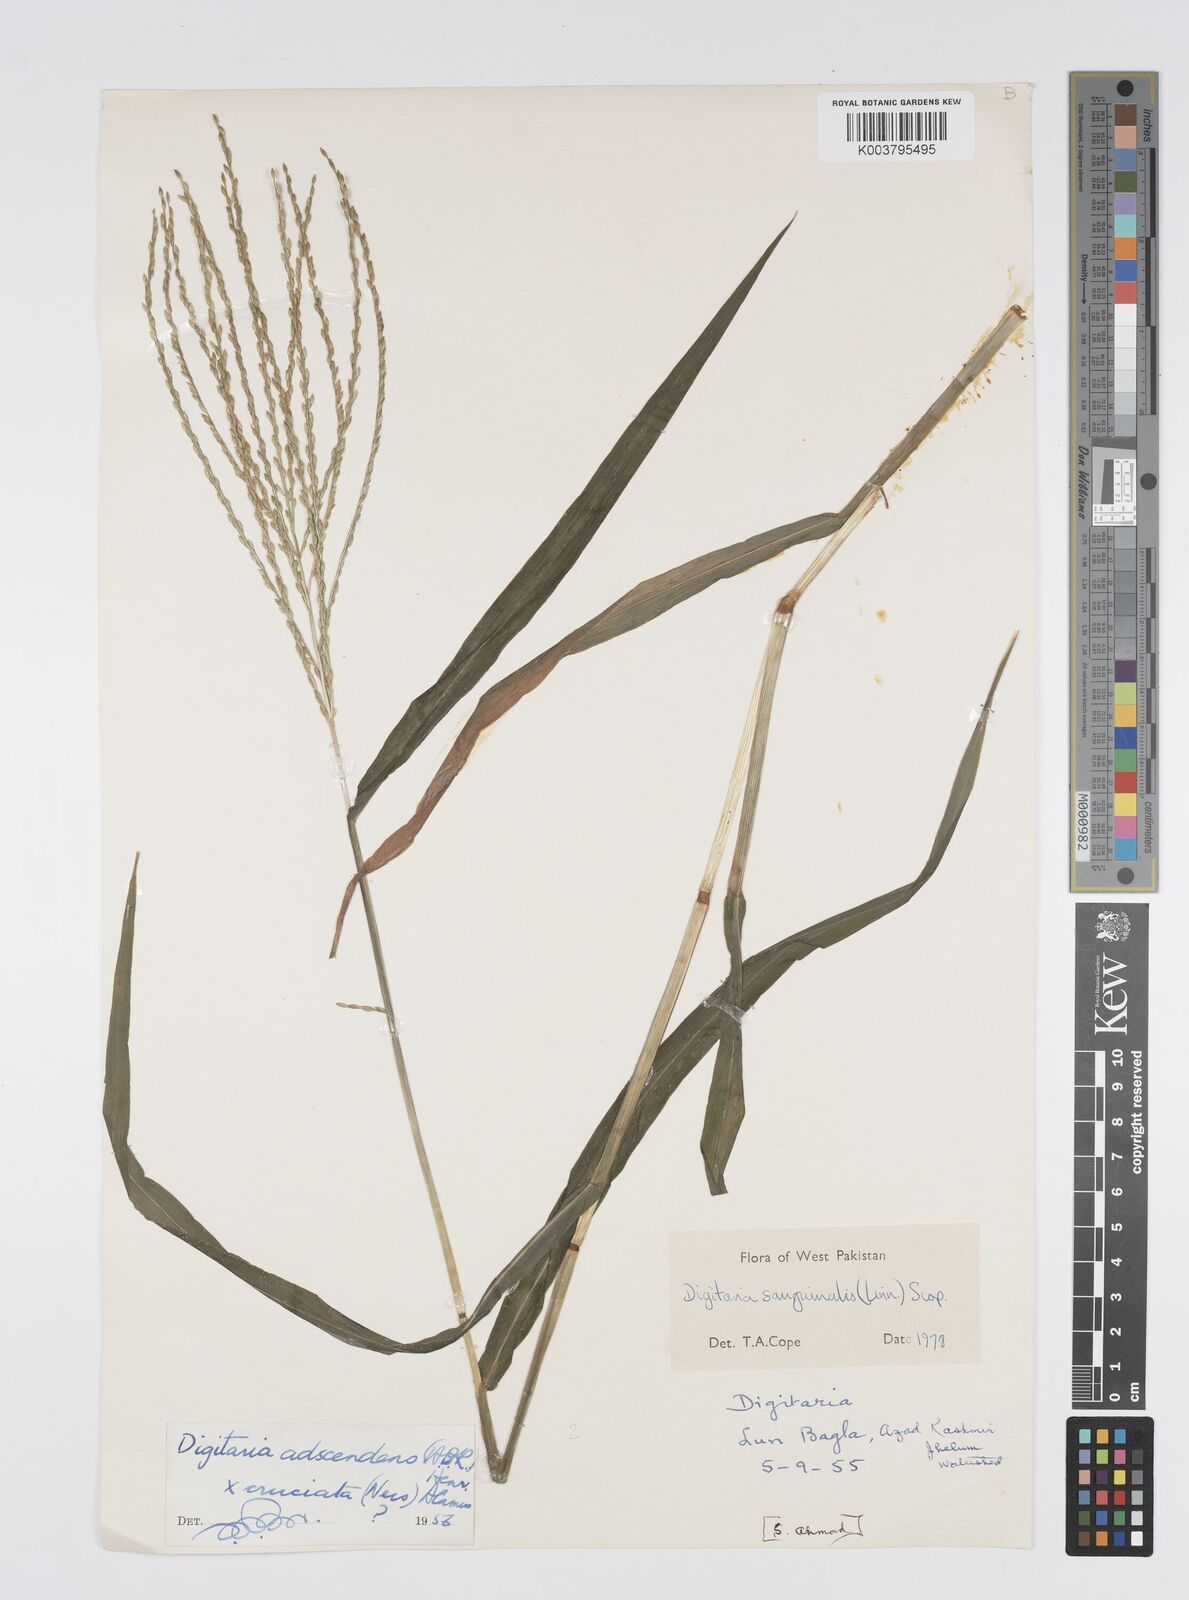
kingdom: Plantae
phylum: Tracheophyta
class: Liliopsida
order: Poales
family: Poaceae
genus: Digitaria
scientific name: Digitaria sanguinalis
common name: Hairy crabgrass
